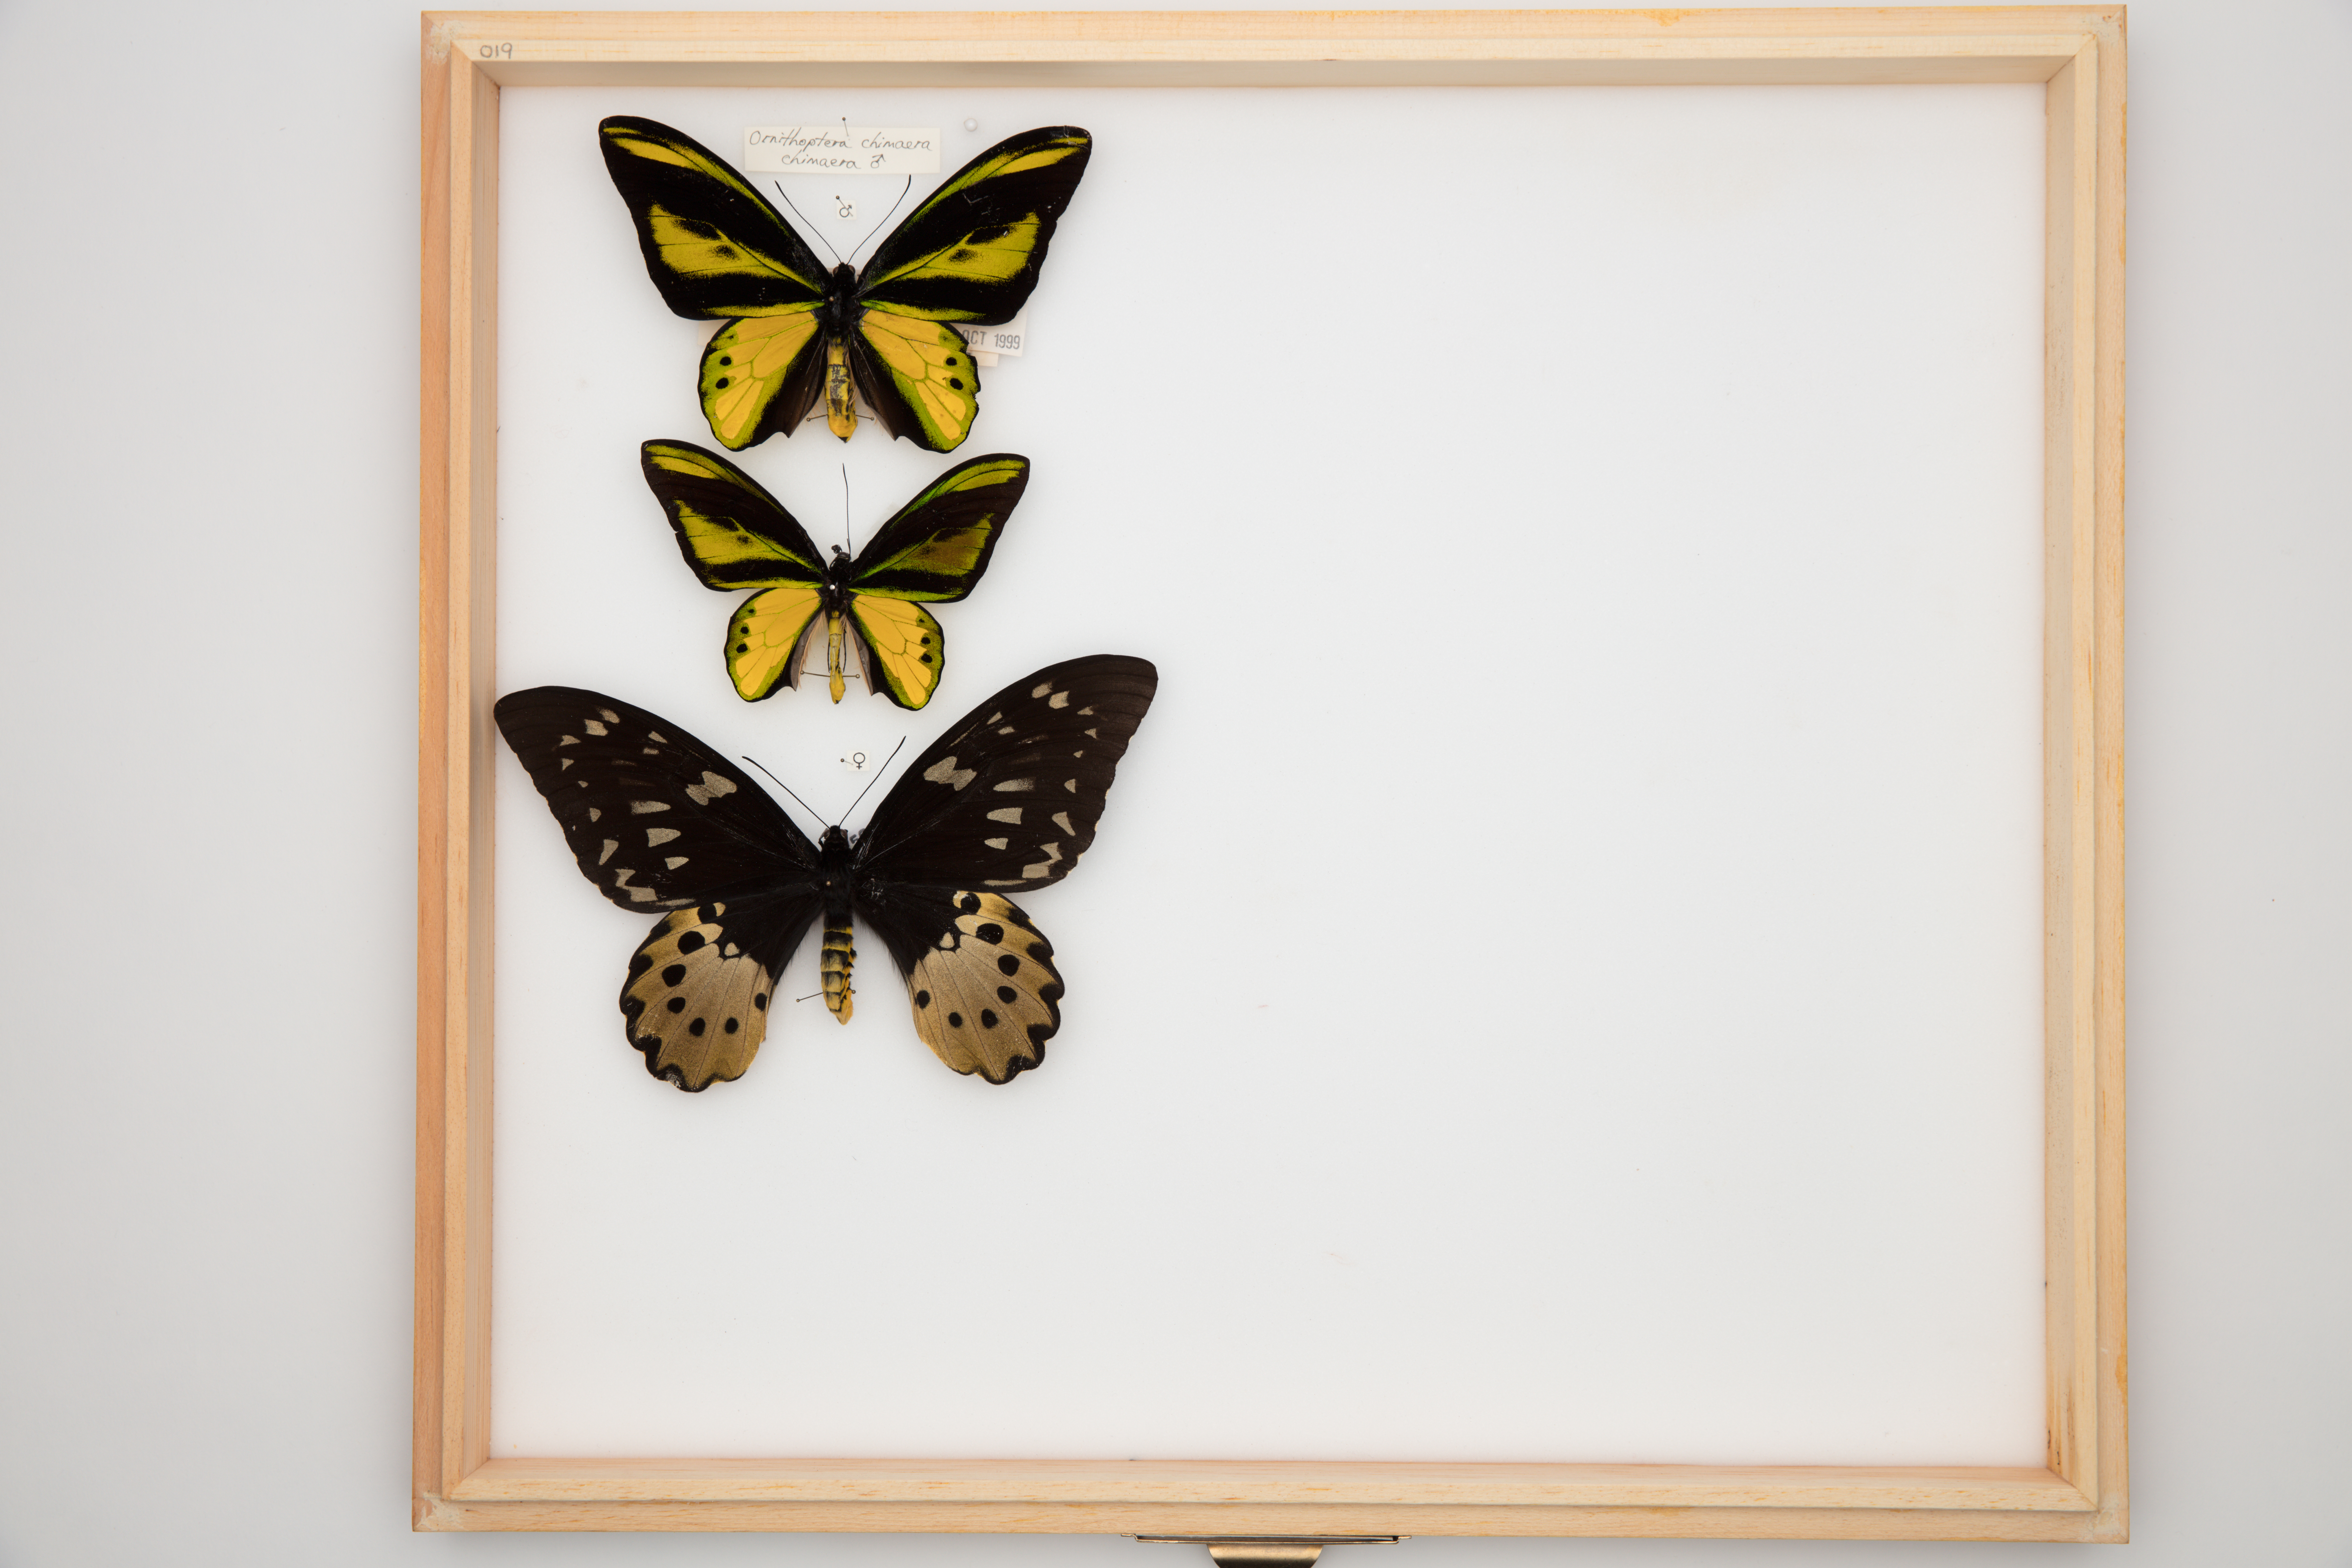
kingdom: Animalia
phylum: Arthropoda
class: Insecta
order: Lepidoptera
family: Papilionidae
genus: Ornithoptera
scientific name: Ornithoptera chimaera
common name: Chimaera birdwing
